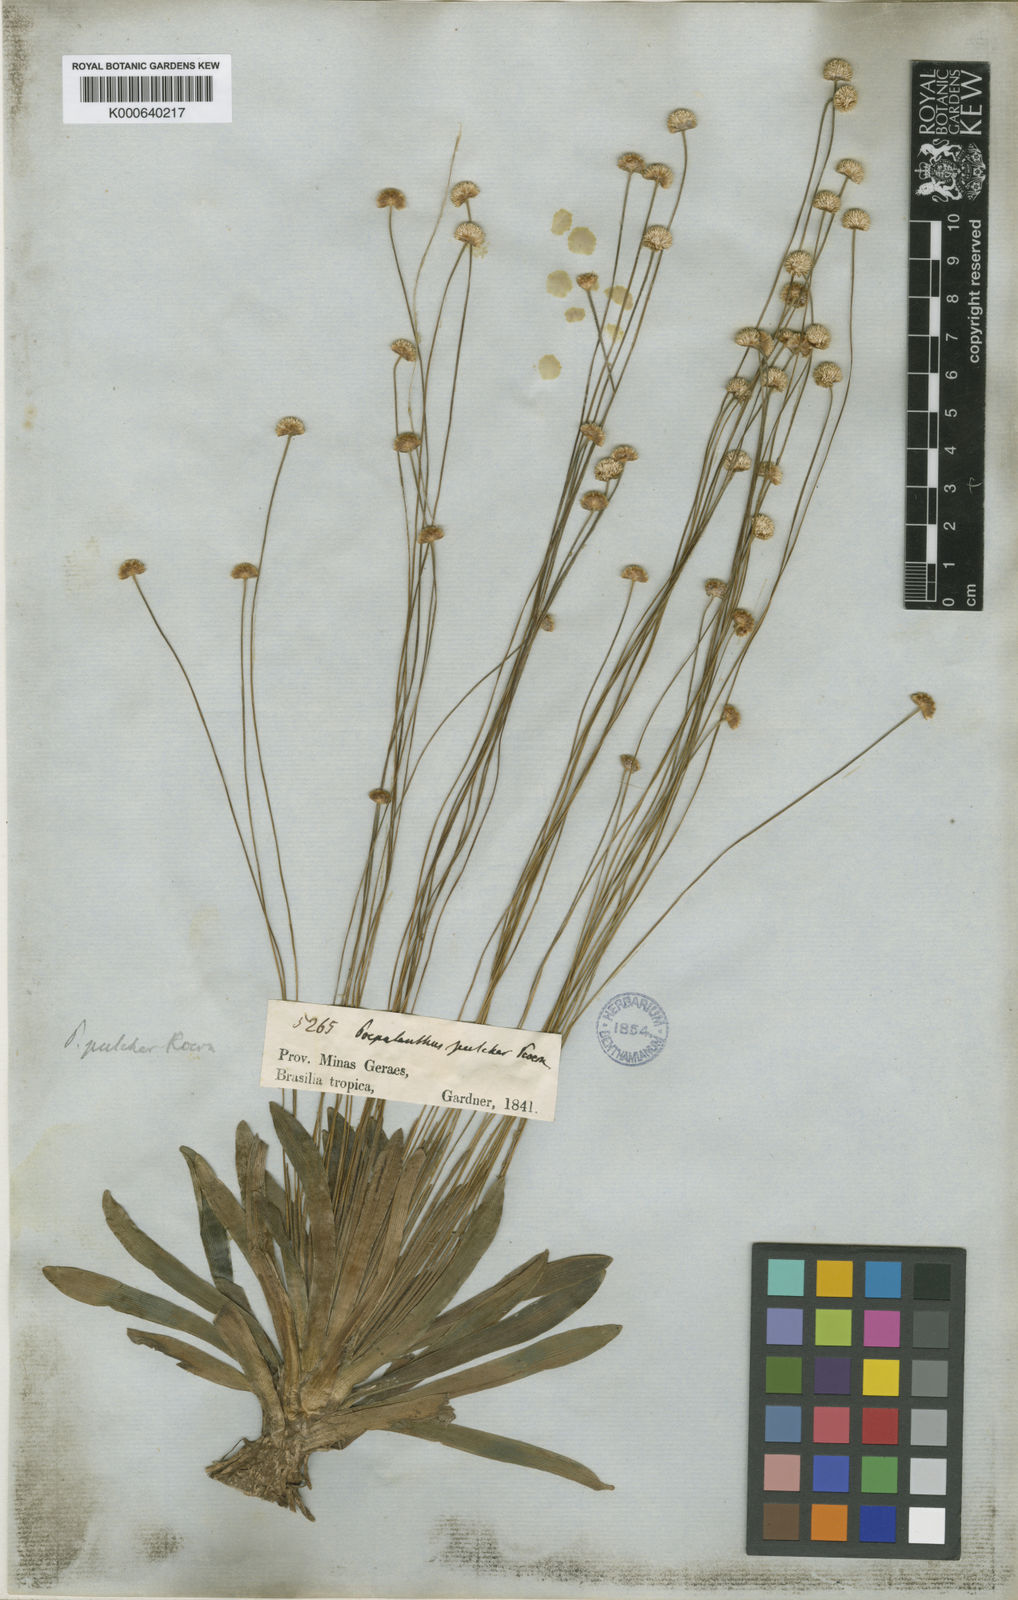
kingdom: Plantae
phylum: Tracheophyta
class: Liliopsida
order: Poales
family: Eriocaulaceae
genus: Syngonanthus
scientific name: Syngonanthus
